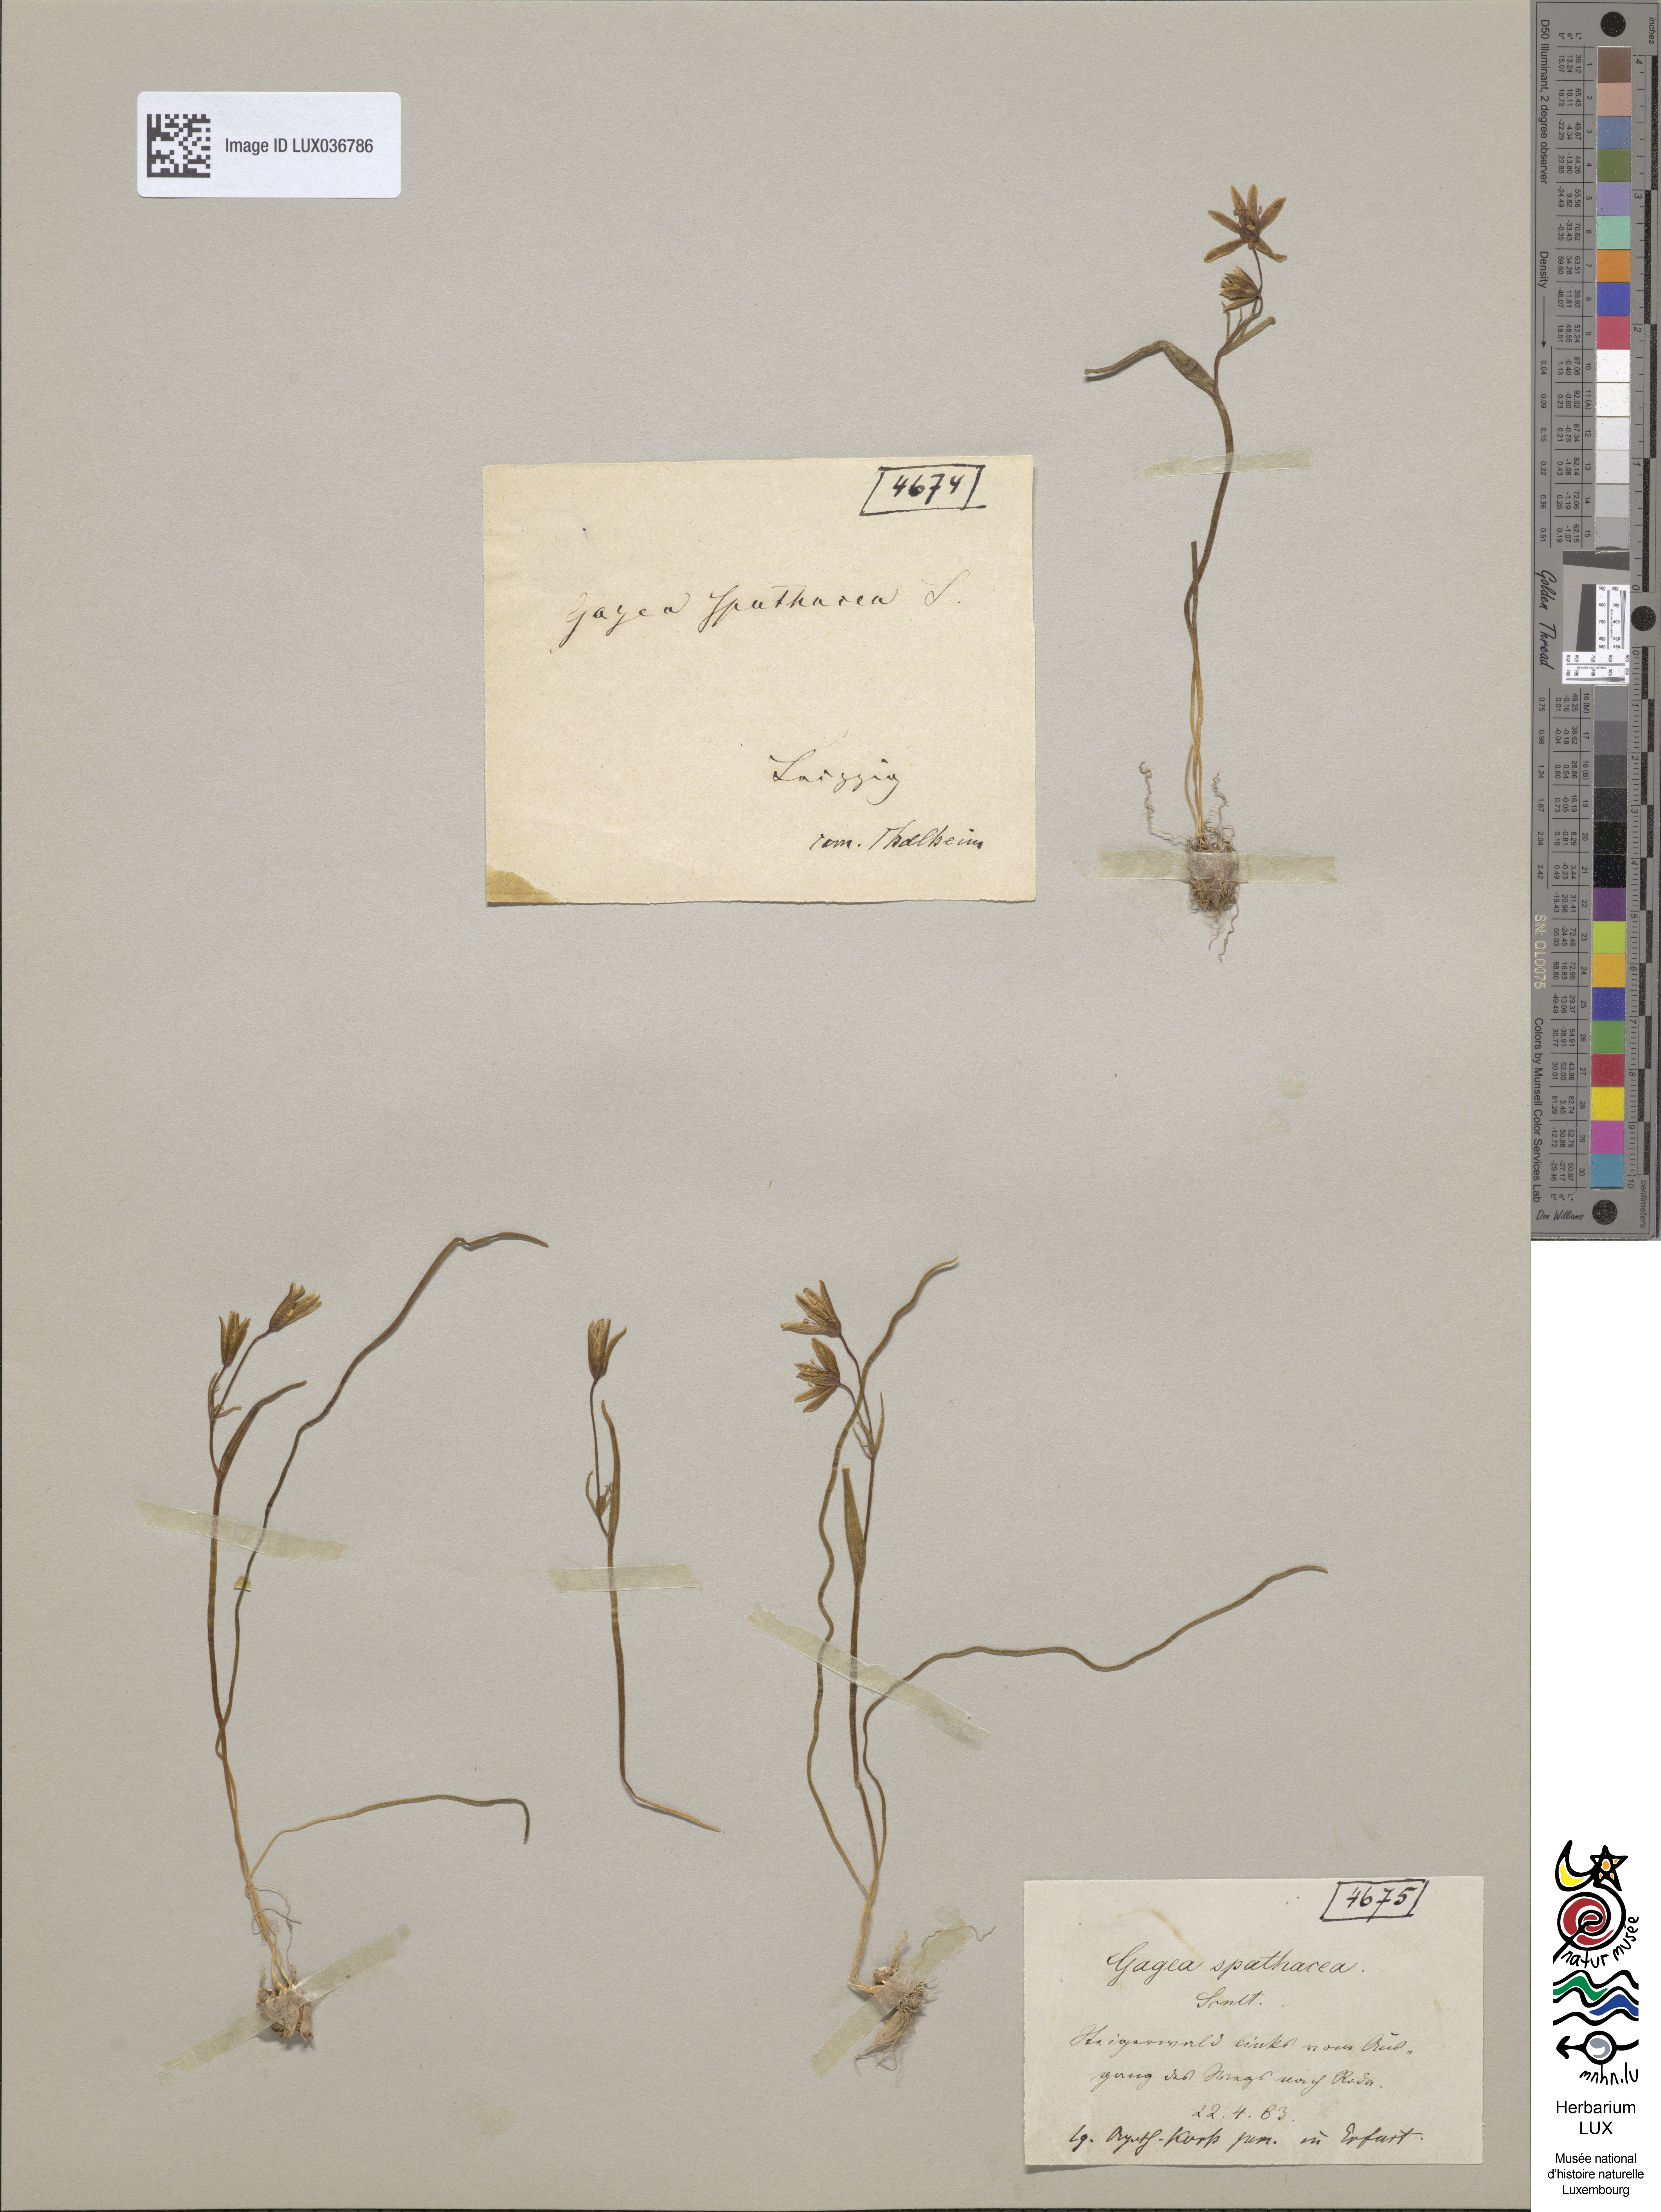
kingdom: Plantae
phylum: Tracheophyta
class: Liliopsida
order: Liliales
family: Liliaceae
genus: Gagea
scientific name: Gagea spathacea
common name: Belgian gagea
